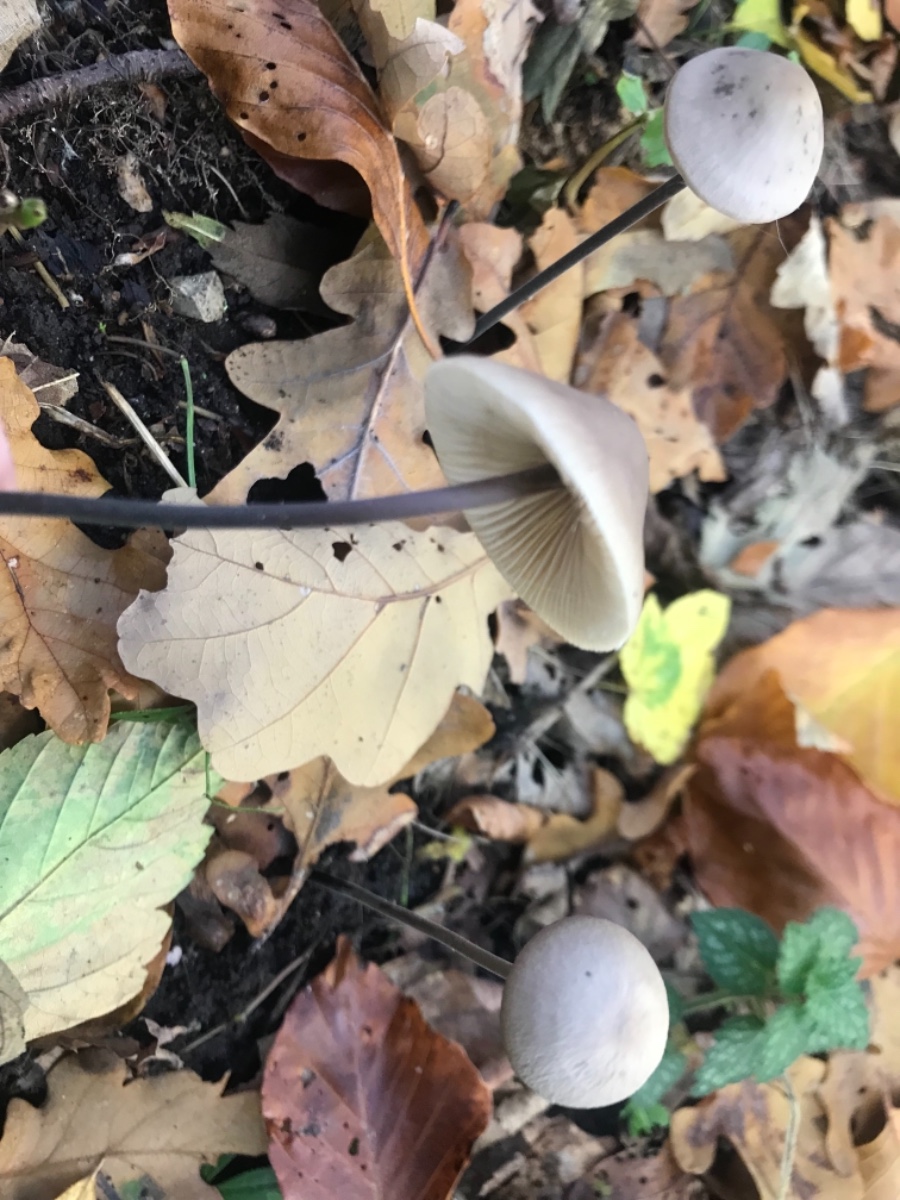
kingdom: Fungi
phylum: Basidiomycota
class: Agaricomycetes
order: Agaricales
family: Omphalotaceae
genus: Mycetinis
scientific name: Mycetinis alliaceus
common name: stor løghat
